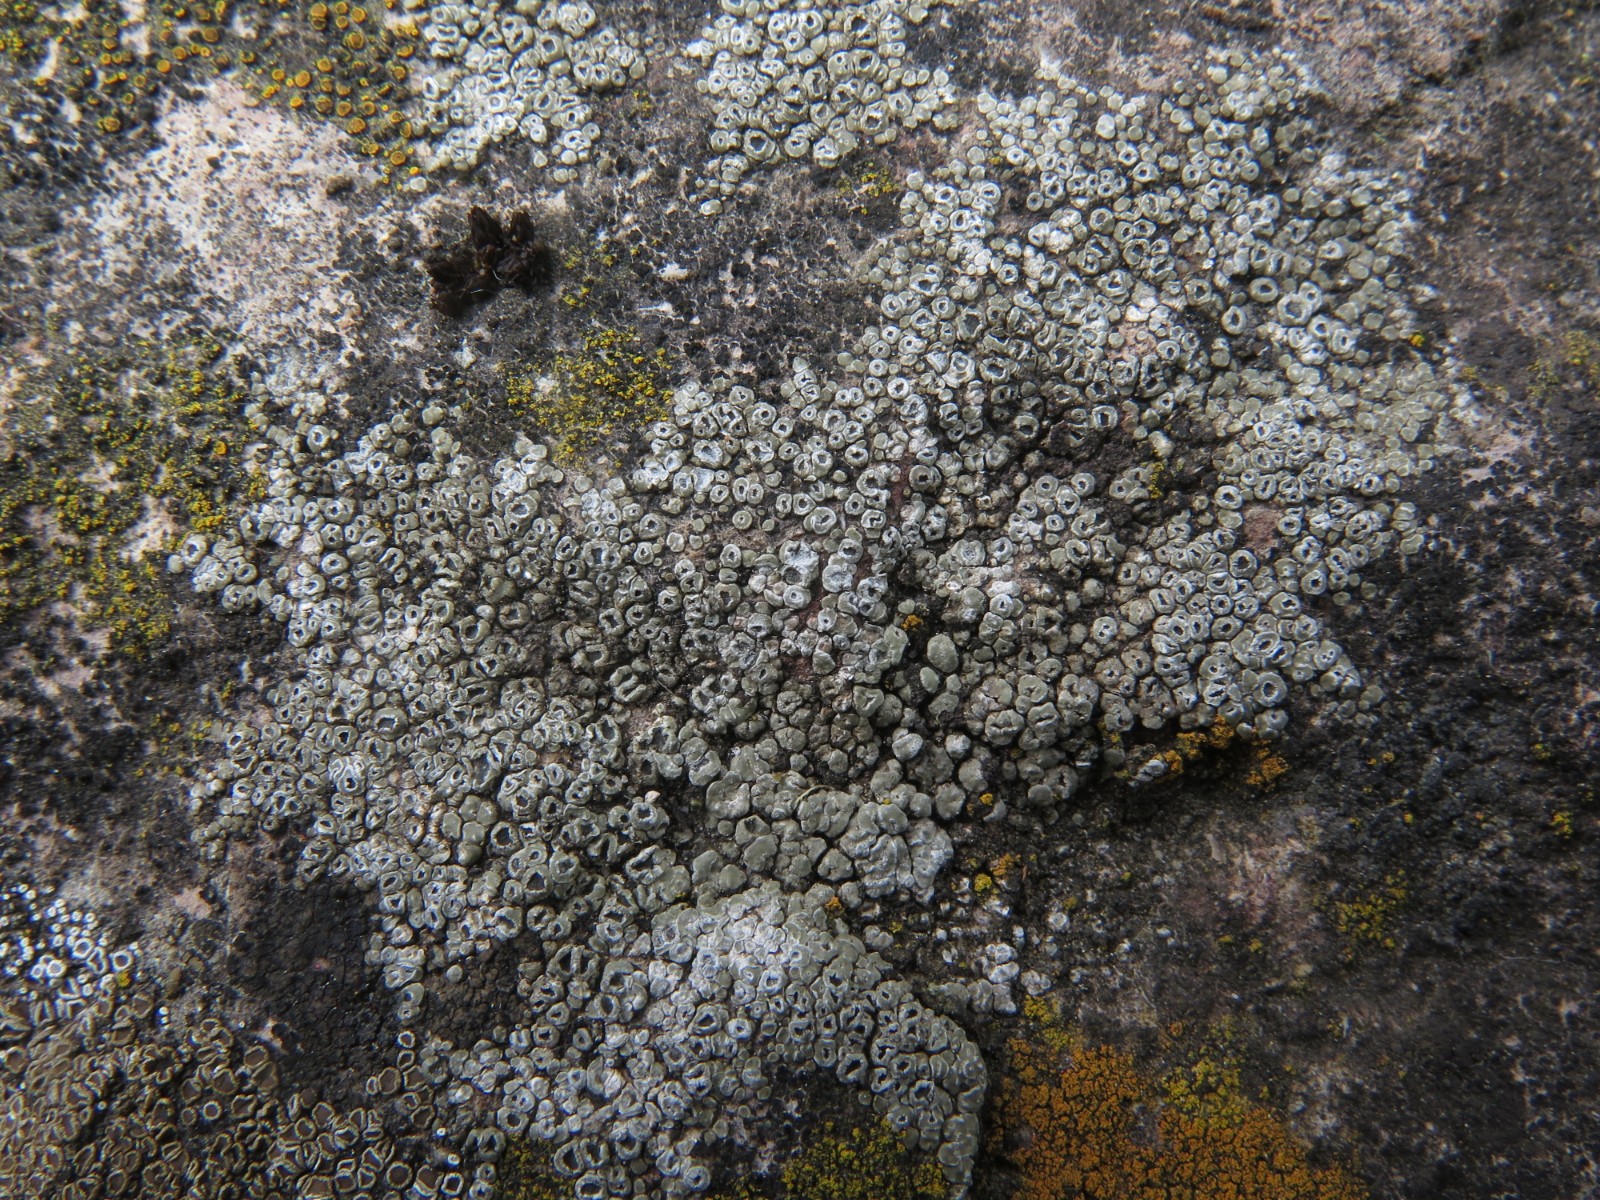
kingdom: Fungi
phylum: Ascomycota
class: Lecanoromycetes
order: Pertusariales
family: Megasporaceae
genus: Circinaria
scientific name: Circinaria contorta
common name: indviklet hulskivelav
